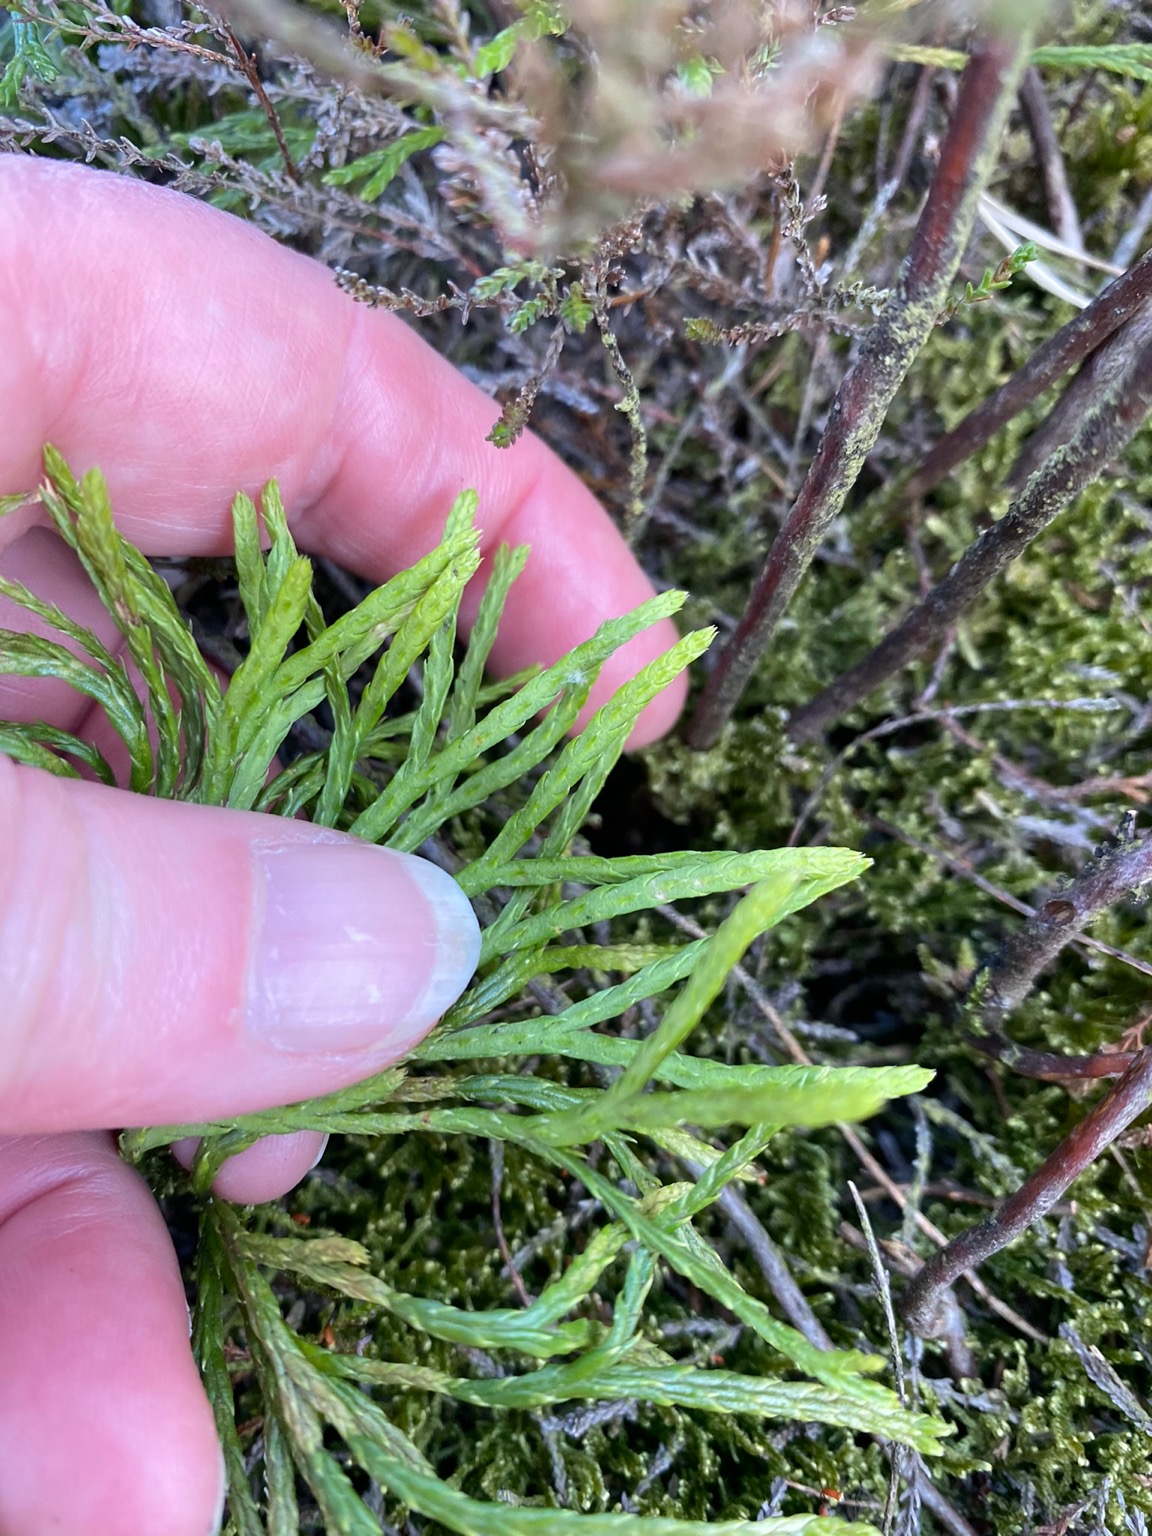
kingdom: Plantae
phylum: Tracheophyta
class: Lycopodiopsida
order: Lycopodiales
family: Lycopodiaceae
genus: Diphasiastrum
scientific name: Diphasiastrum complanatum
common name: Flad ulvefod
